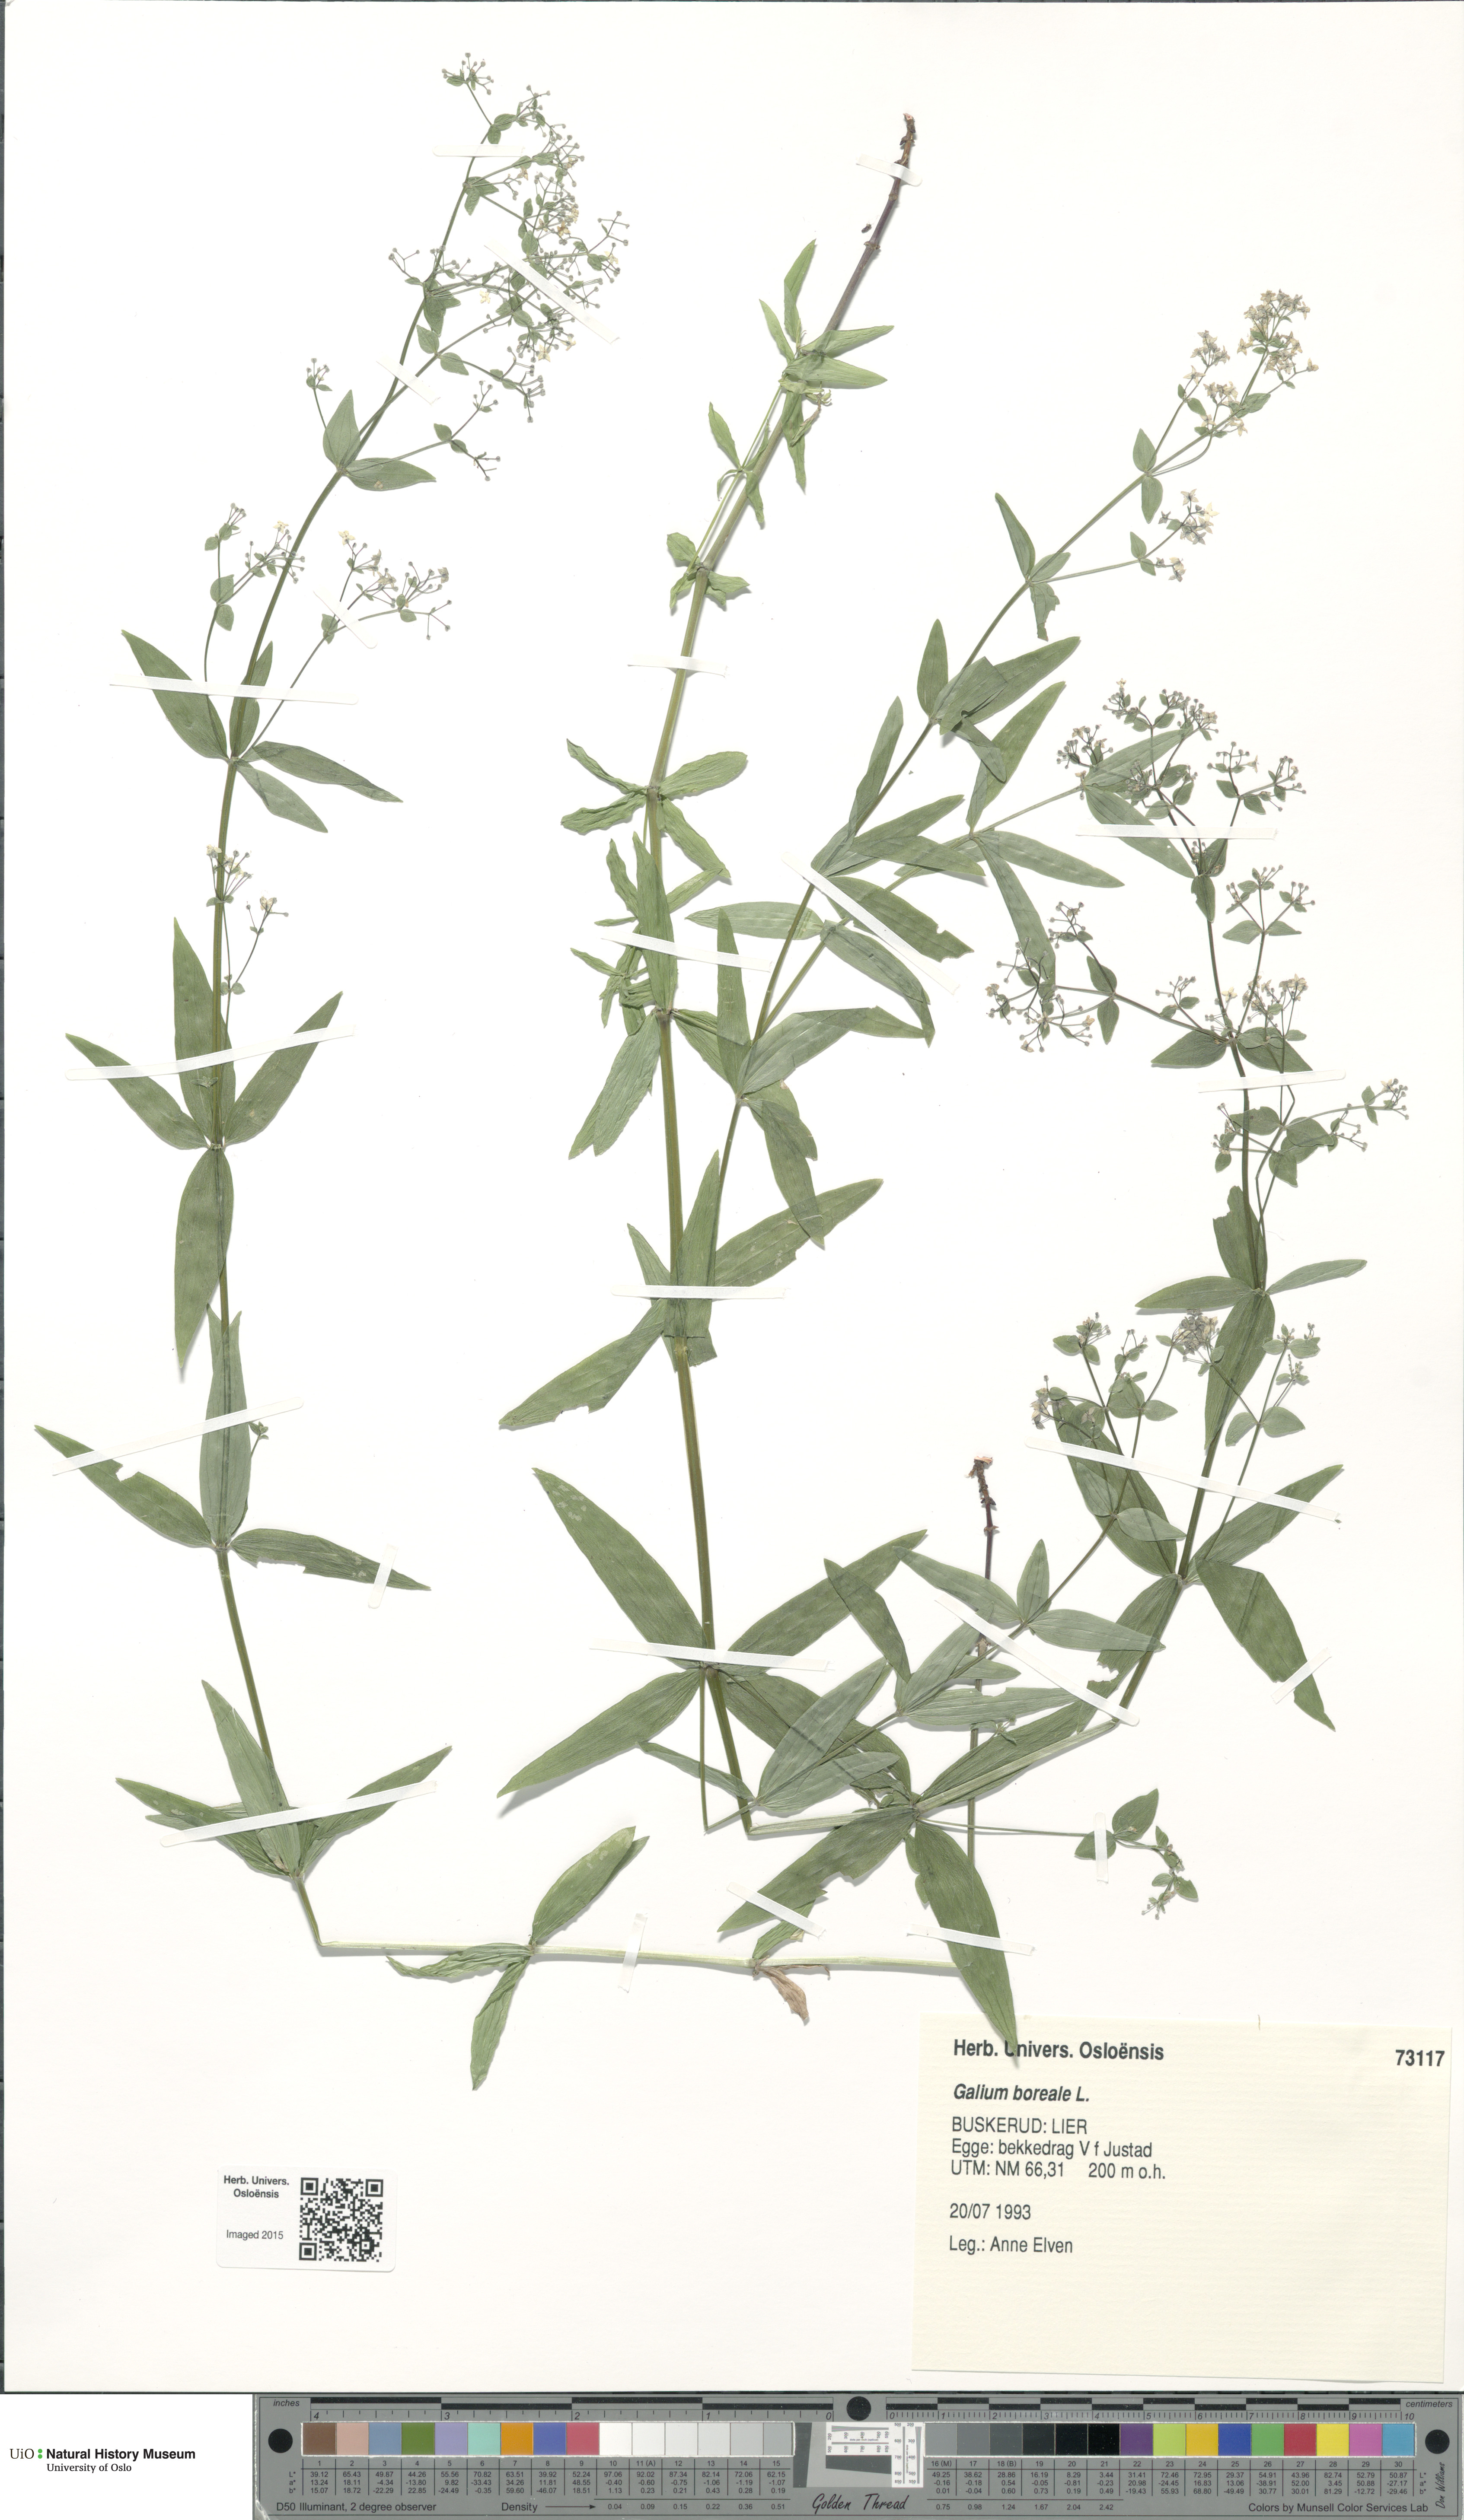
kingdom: Plantae
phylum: Tracheophyta
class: Magnoliopsida
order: Gentianales
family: Rubiaceae
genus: Galium
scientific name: Galium boreale
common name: Northern bedstraw
